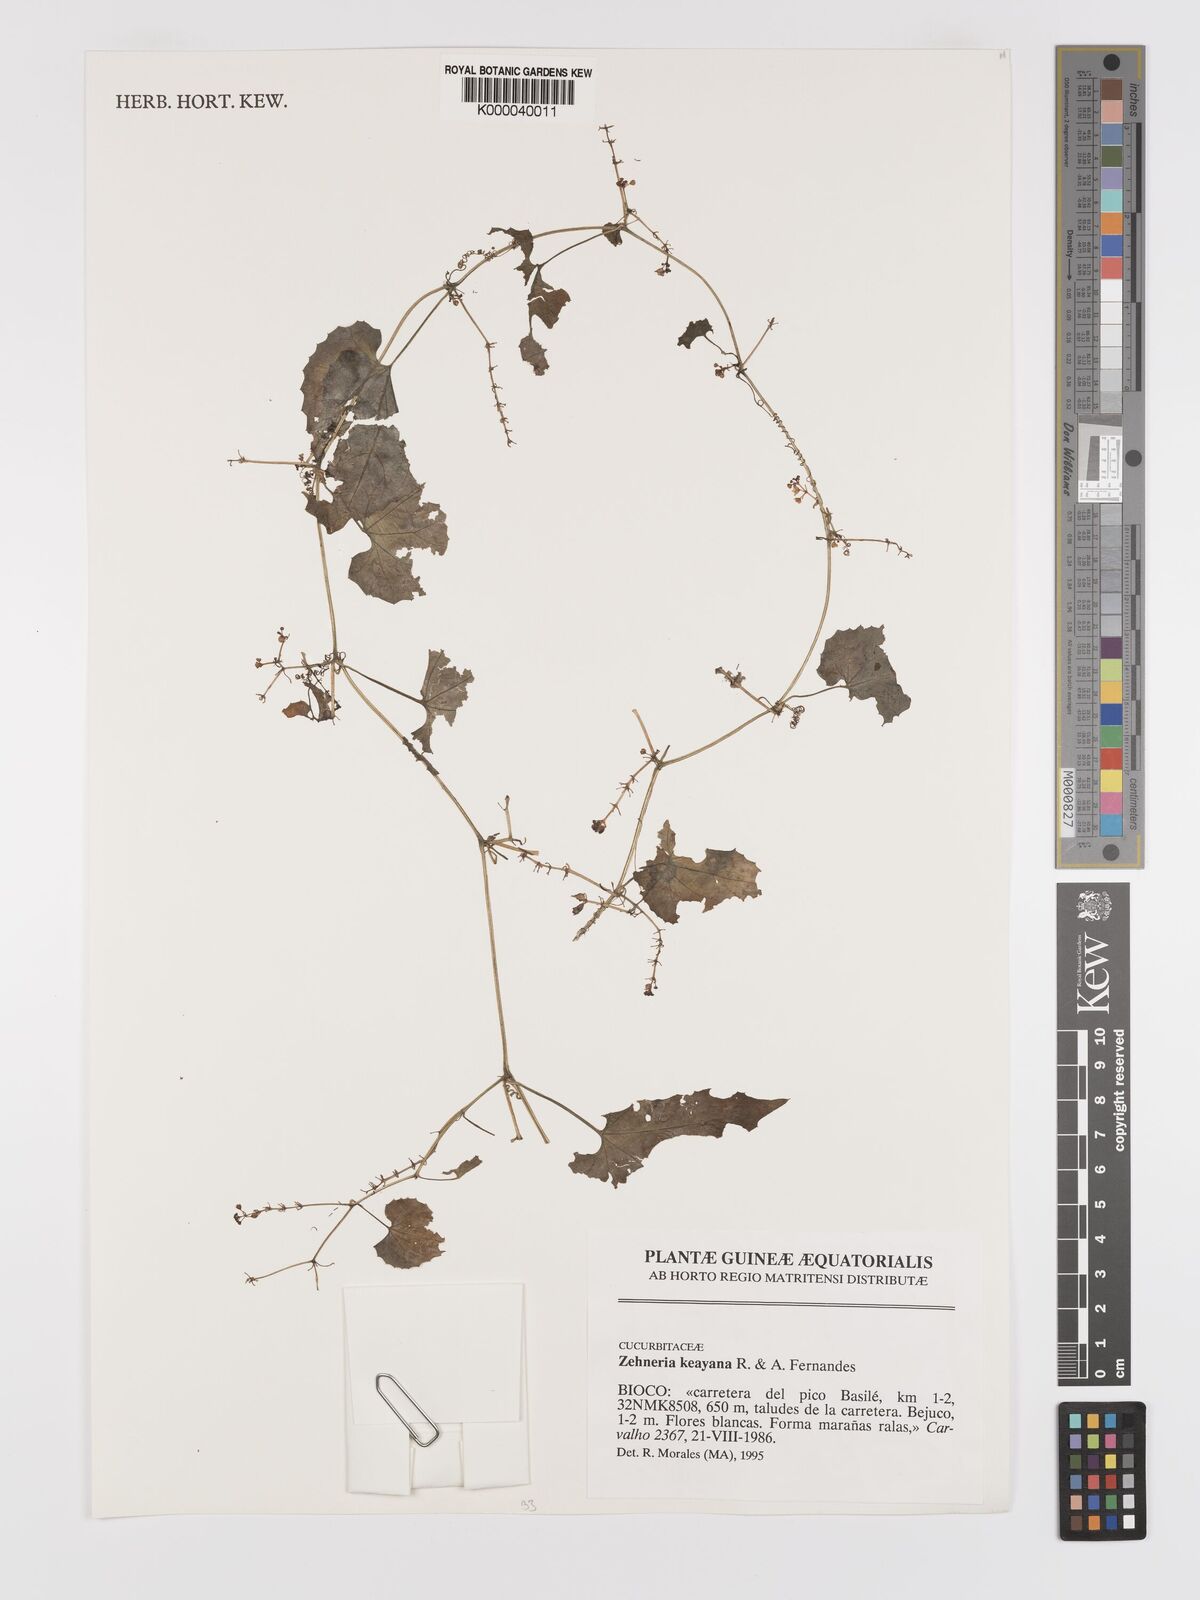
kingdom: Plantae
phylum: Tracheophyta
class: Magnoliopsida
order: Cucurbitales
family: Cucurbitaceae
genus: Zehneria
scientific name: Zehneria keayana
